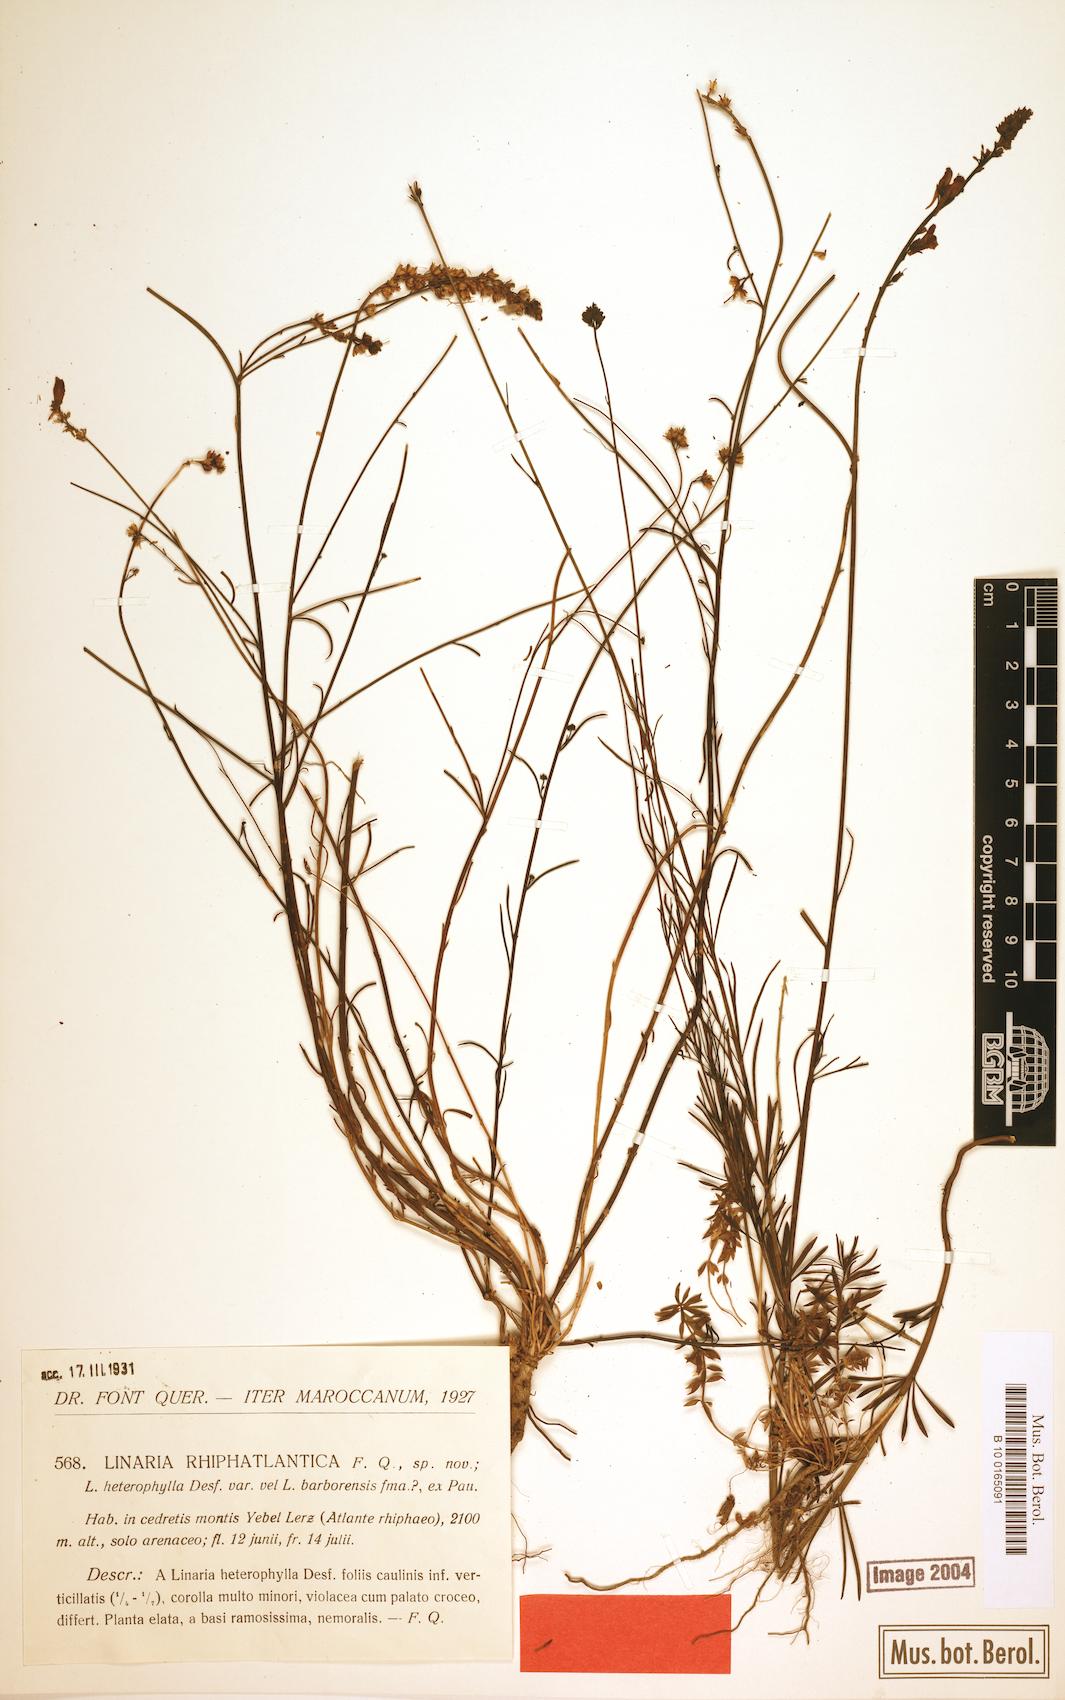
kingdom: Plantae
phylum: Tracheophyta
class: Magnoliopsida
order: Lamiales
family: Plantaginaceae
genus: Linaria
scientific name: Linaria multicaulis
